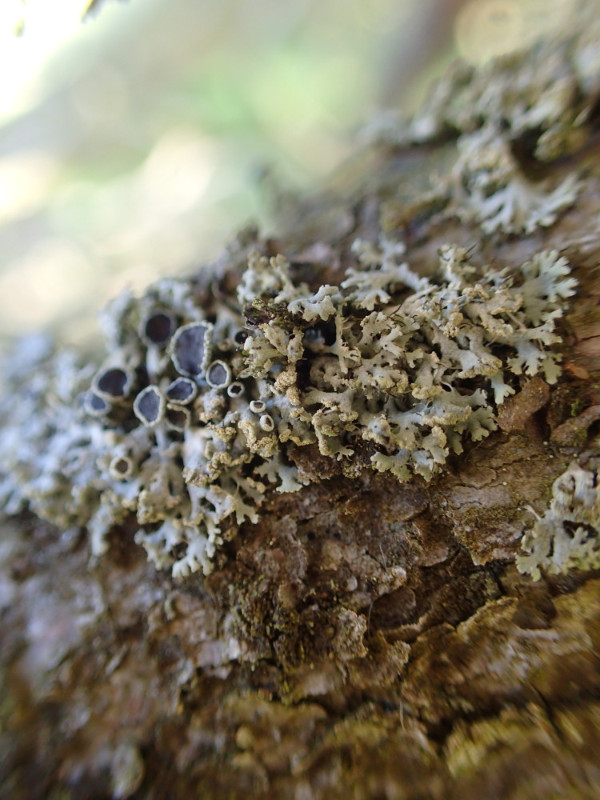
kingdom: Fungi
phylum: Ascomycota
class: Lecanoromycetes
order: Caliciales
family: Physciaceae
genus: Physcia
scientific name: Physcia tenella
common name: spæd rosetlav
